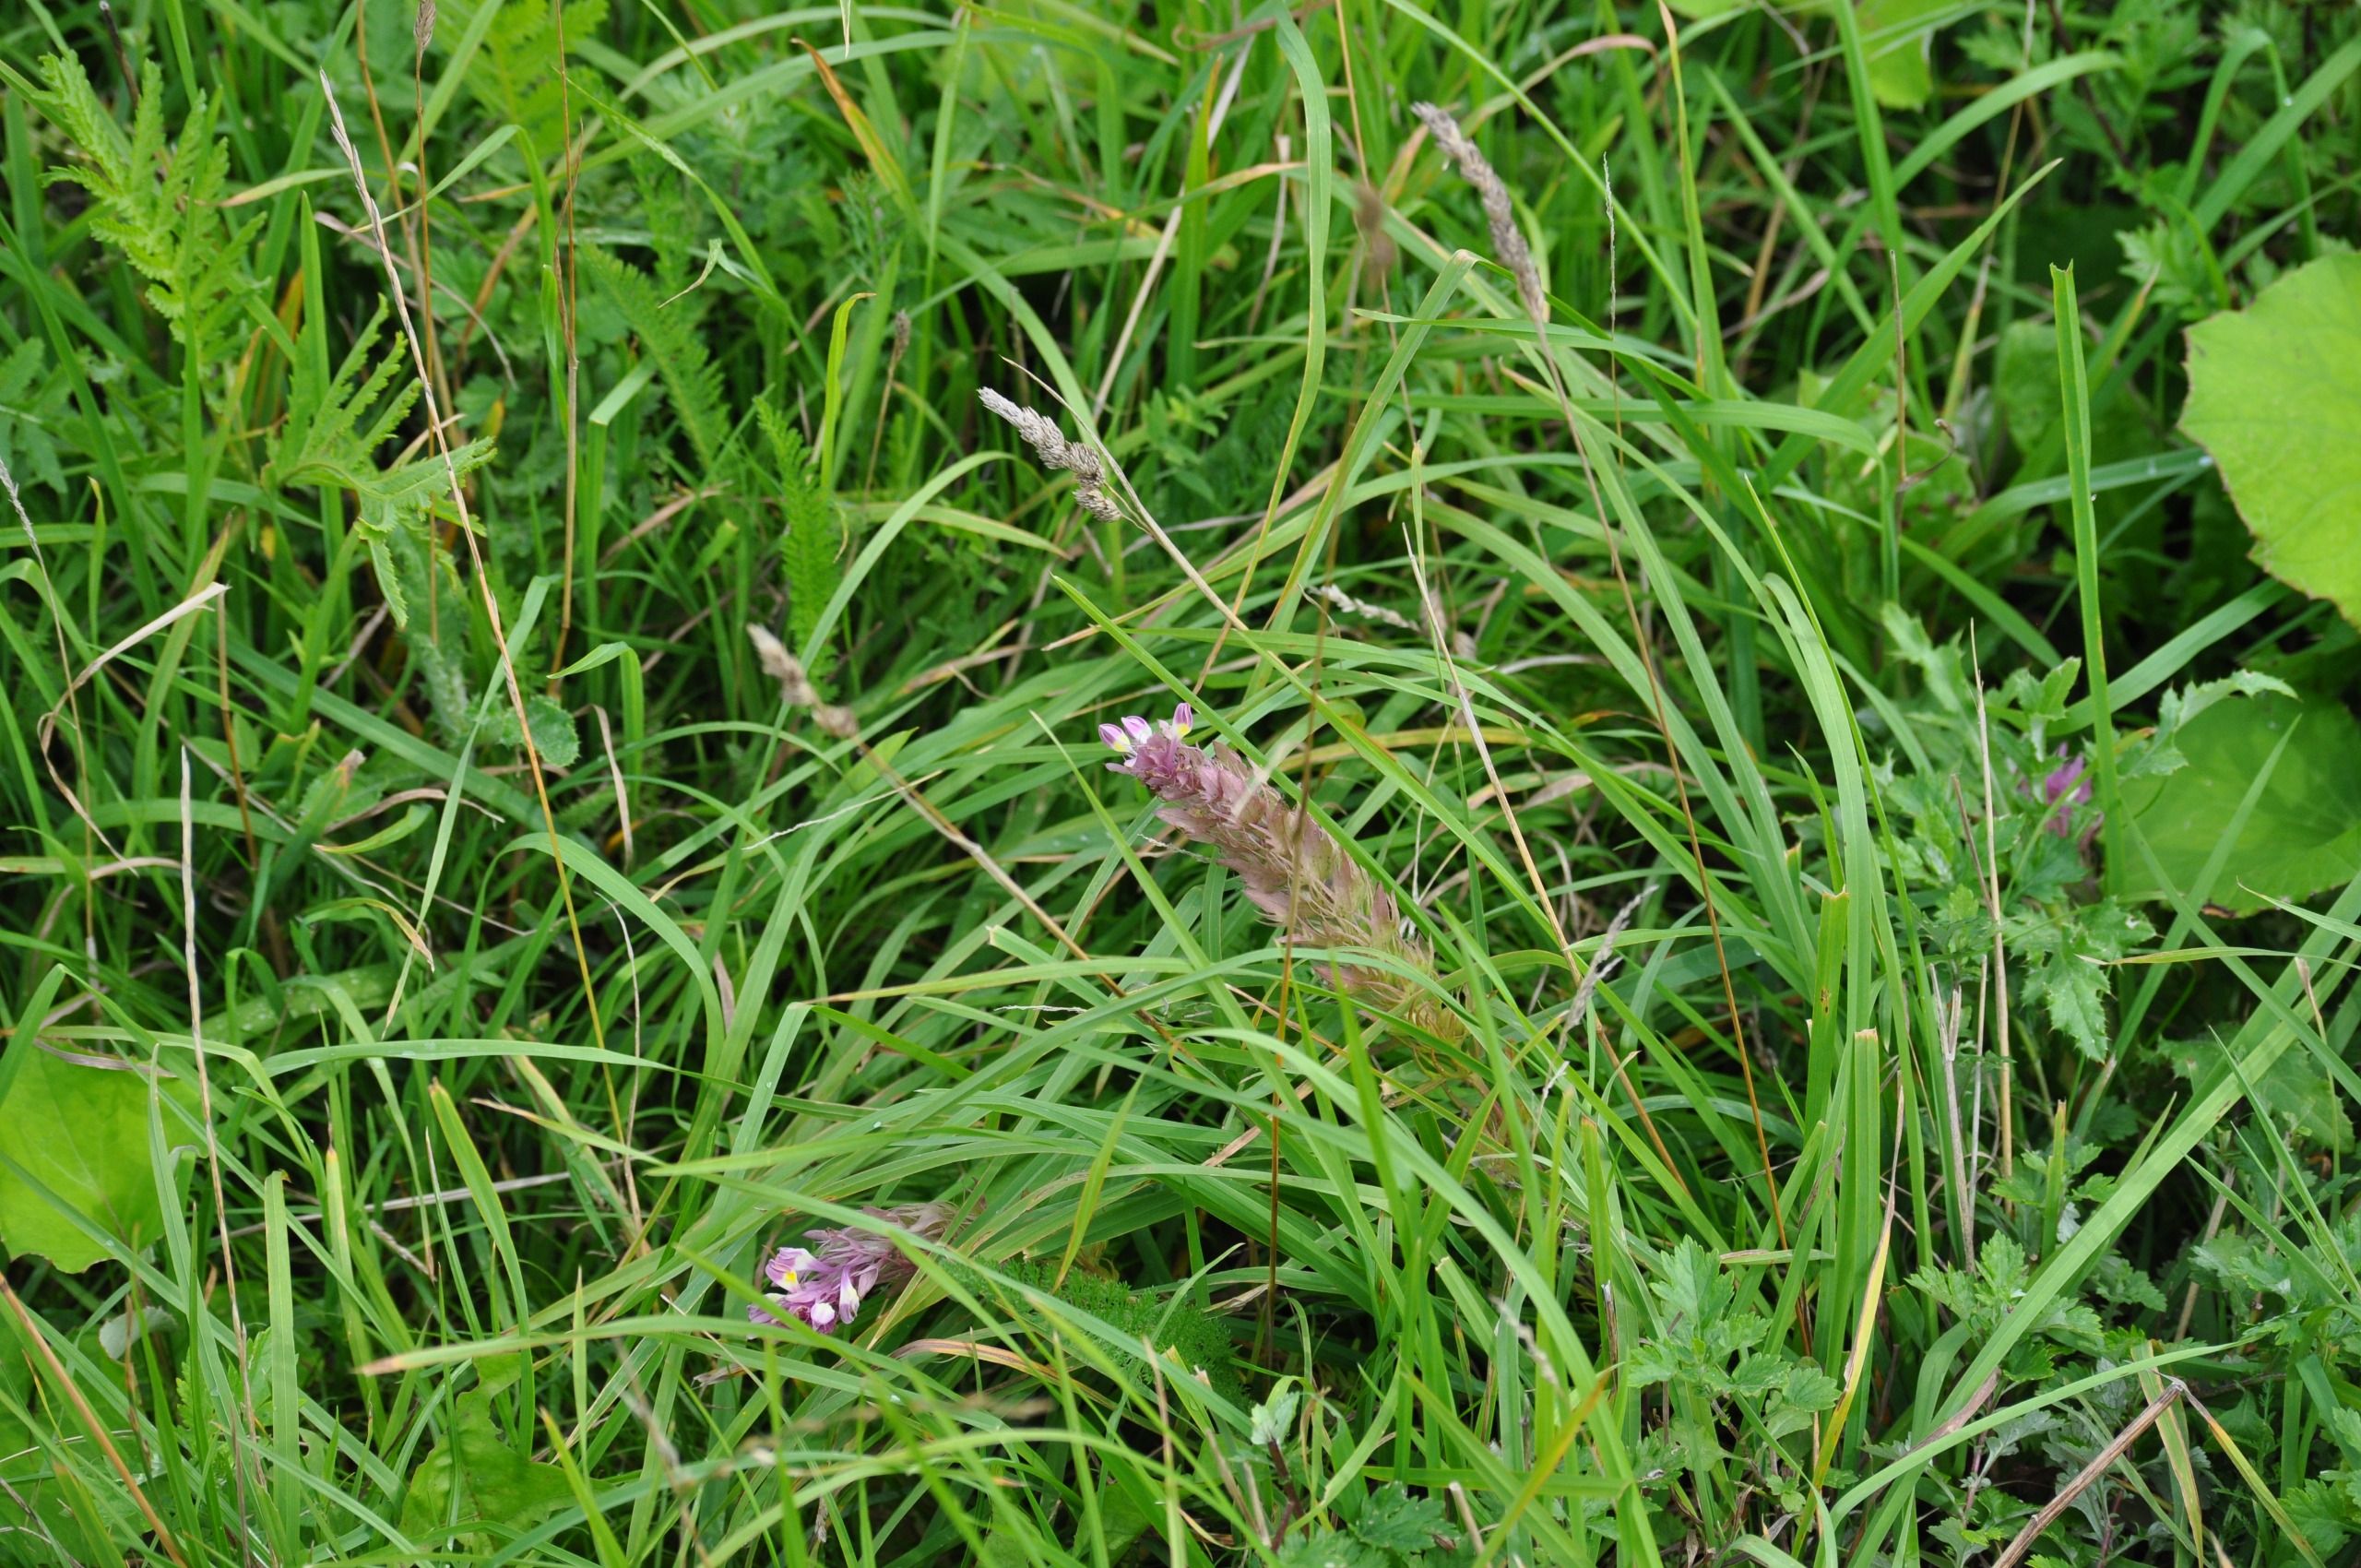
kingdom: Plantae
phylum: Tracheophyta
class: Magnoliopsida
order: Lamiales
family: Orobanchaceae
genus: Melampyrum
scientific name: Melampyrum arvense
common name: Ager-kohvede
